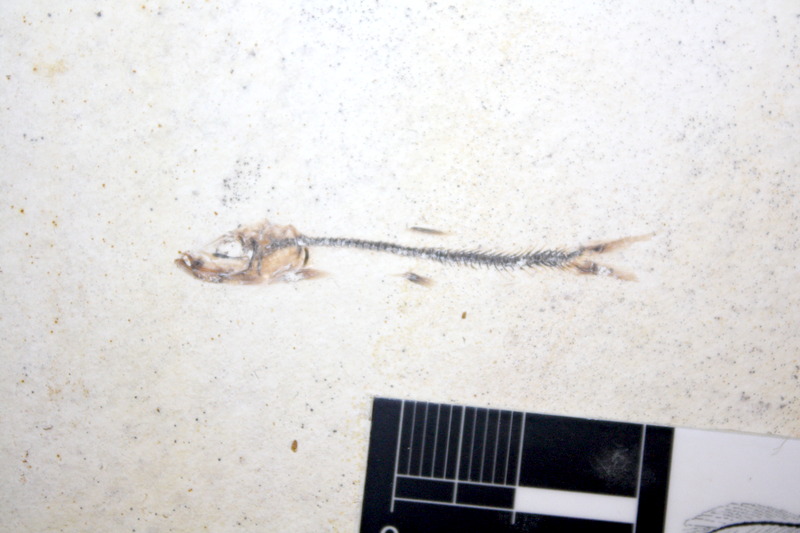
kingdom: Animalia
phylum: Chordata
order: Salmoniformes
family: Orthogonikleithridae
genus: Orthogonikleithrus
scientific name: Orthogonikleithrus hoelli
